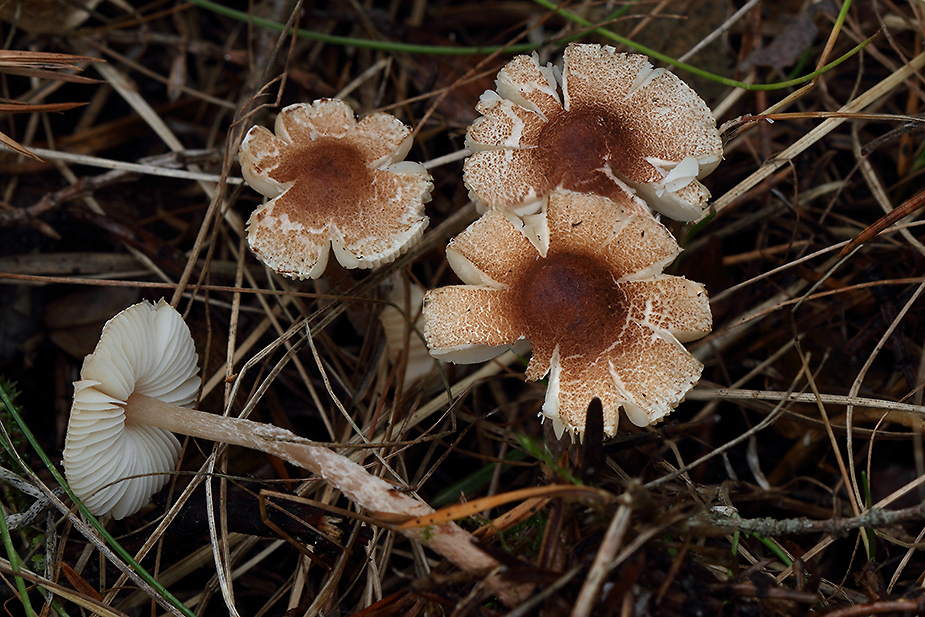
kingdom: Fungi
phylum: Basidiomycota
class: Agaricomycetes
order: Agaricales
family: Agaricaceae
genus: Lepiota
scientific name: Lepiota echinella
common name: finskællet parasolhat
